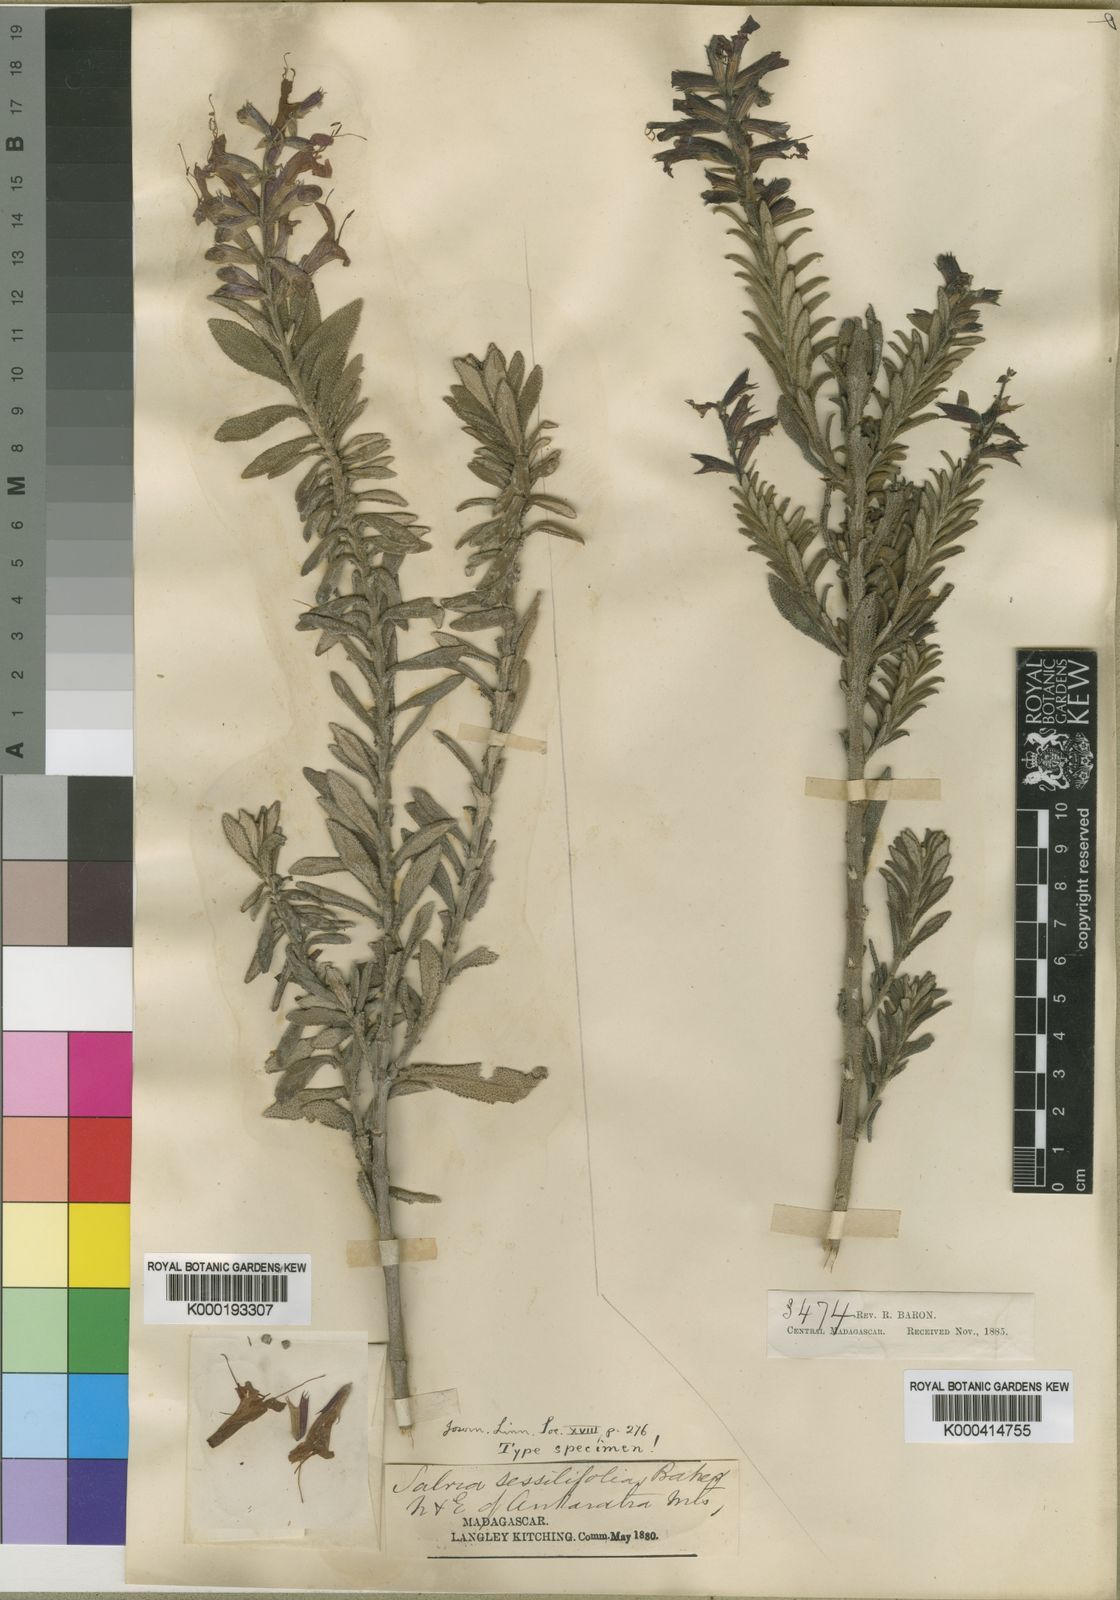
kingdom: Plantae
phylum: Tracheophyta
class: Magnoliopsida
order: Lamiales
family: Lamiaceae
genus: Salvia
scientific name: Salvia sessilifolia
